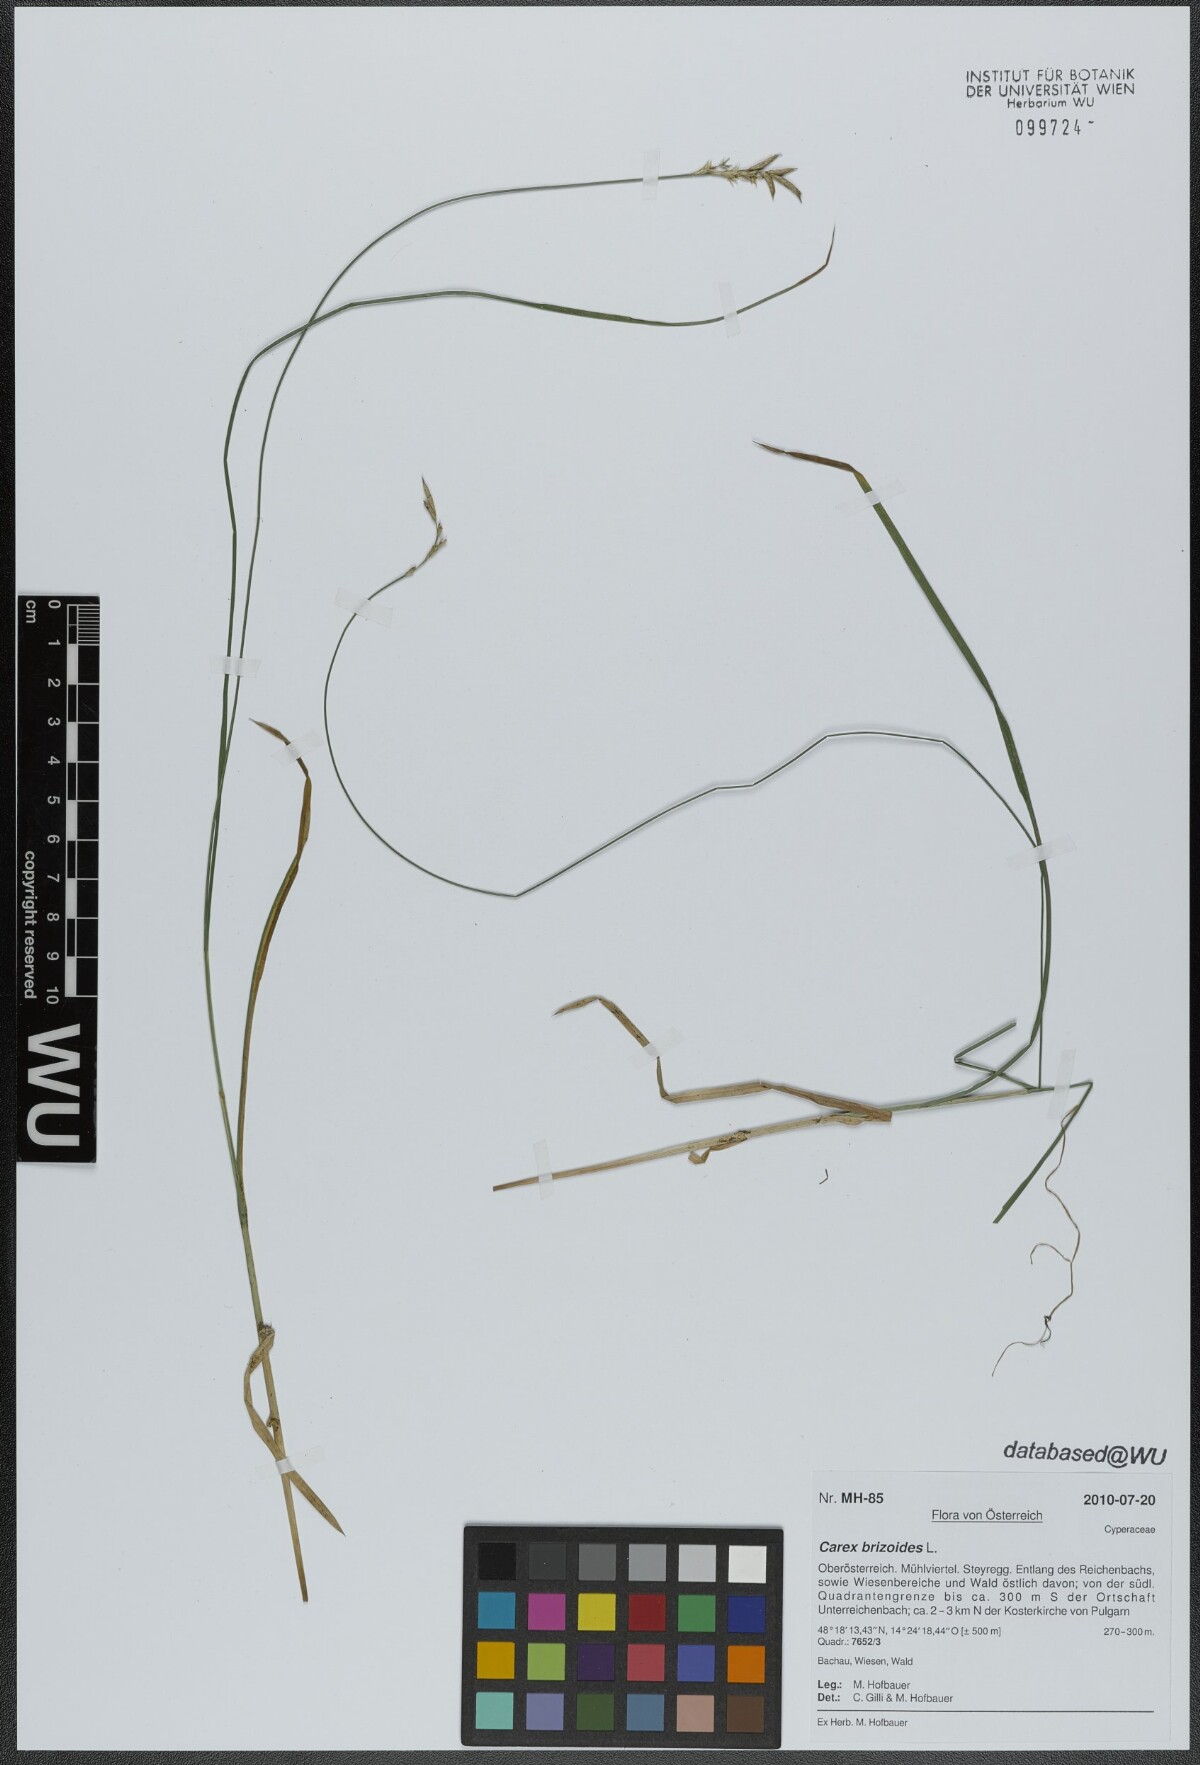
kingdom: Plantae
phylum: Tracheophyta
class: Liliopsida
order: Poales
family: Cyperaceae
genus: Carex
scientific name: Carex brizoides
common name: Quaking-grass sedge
